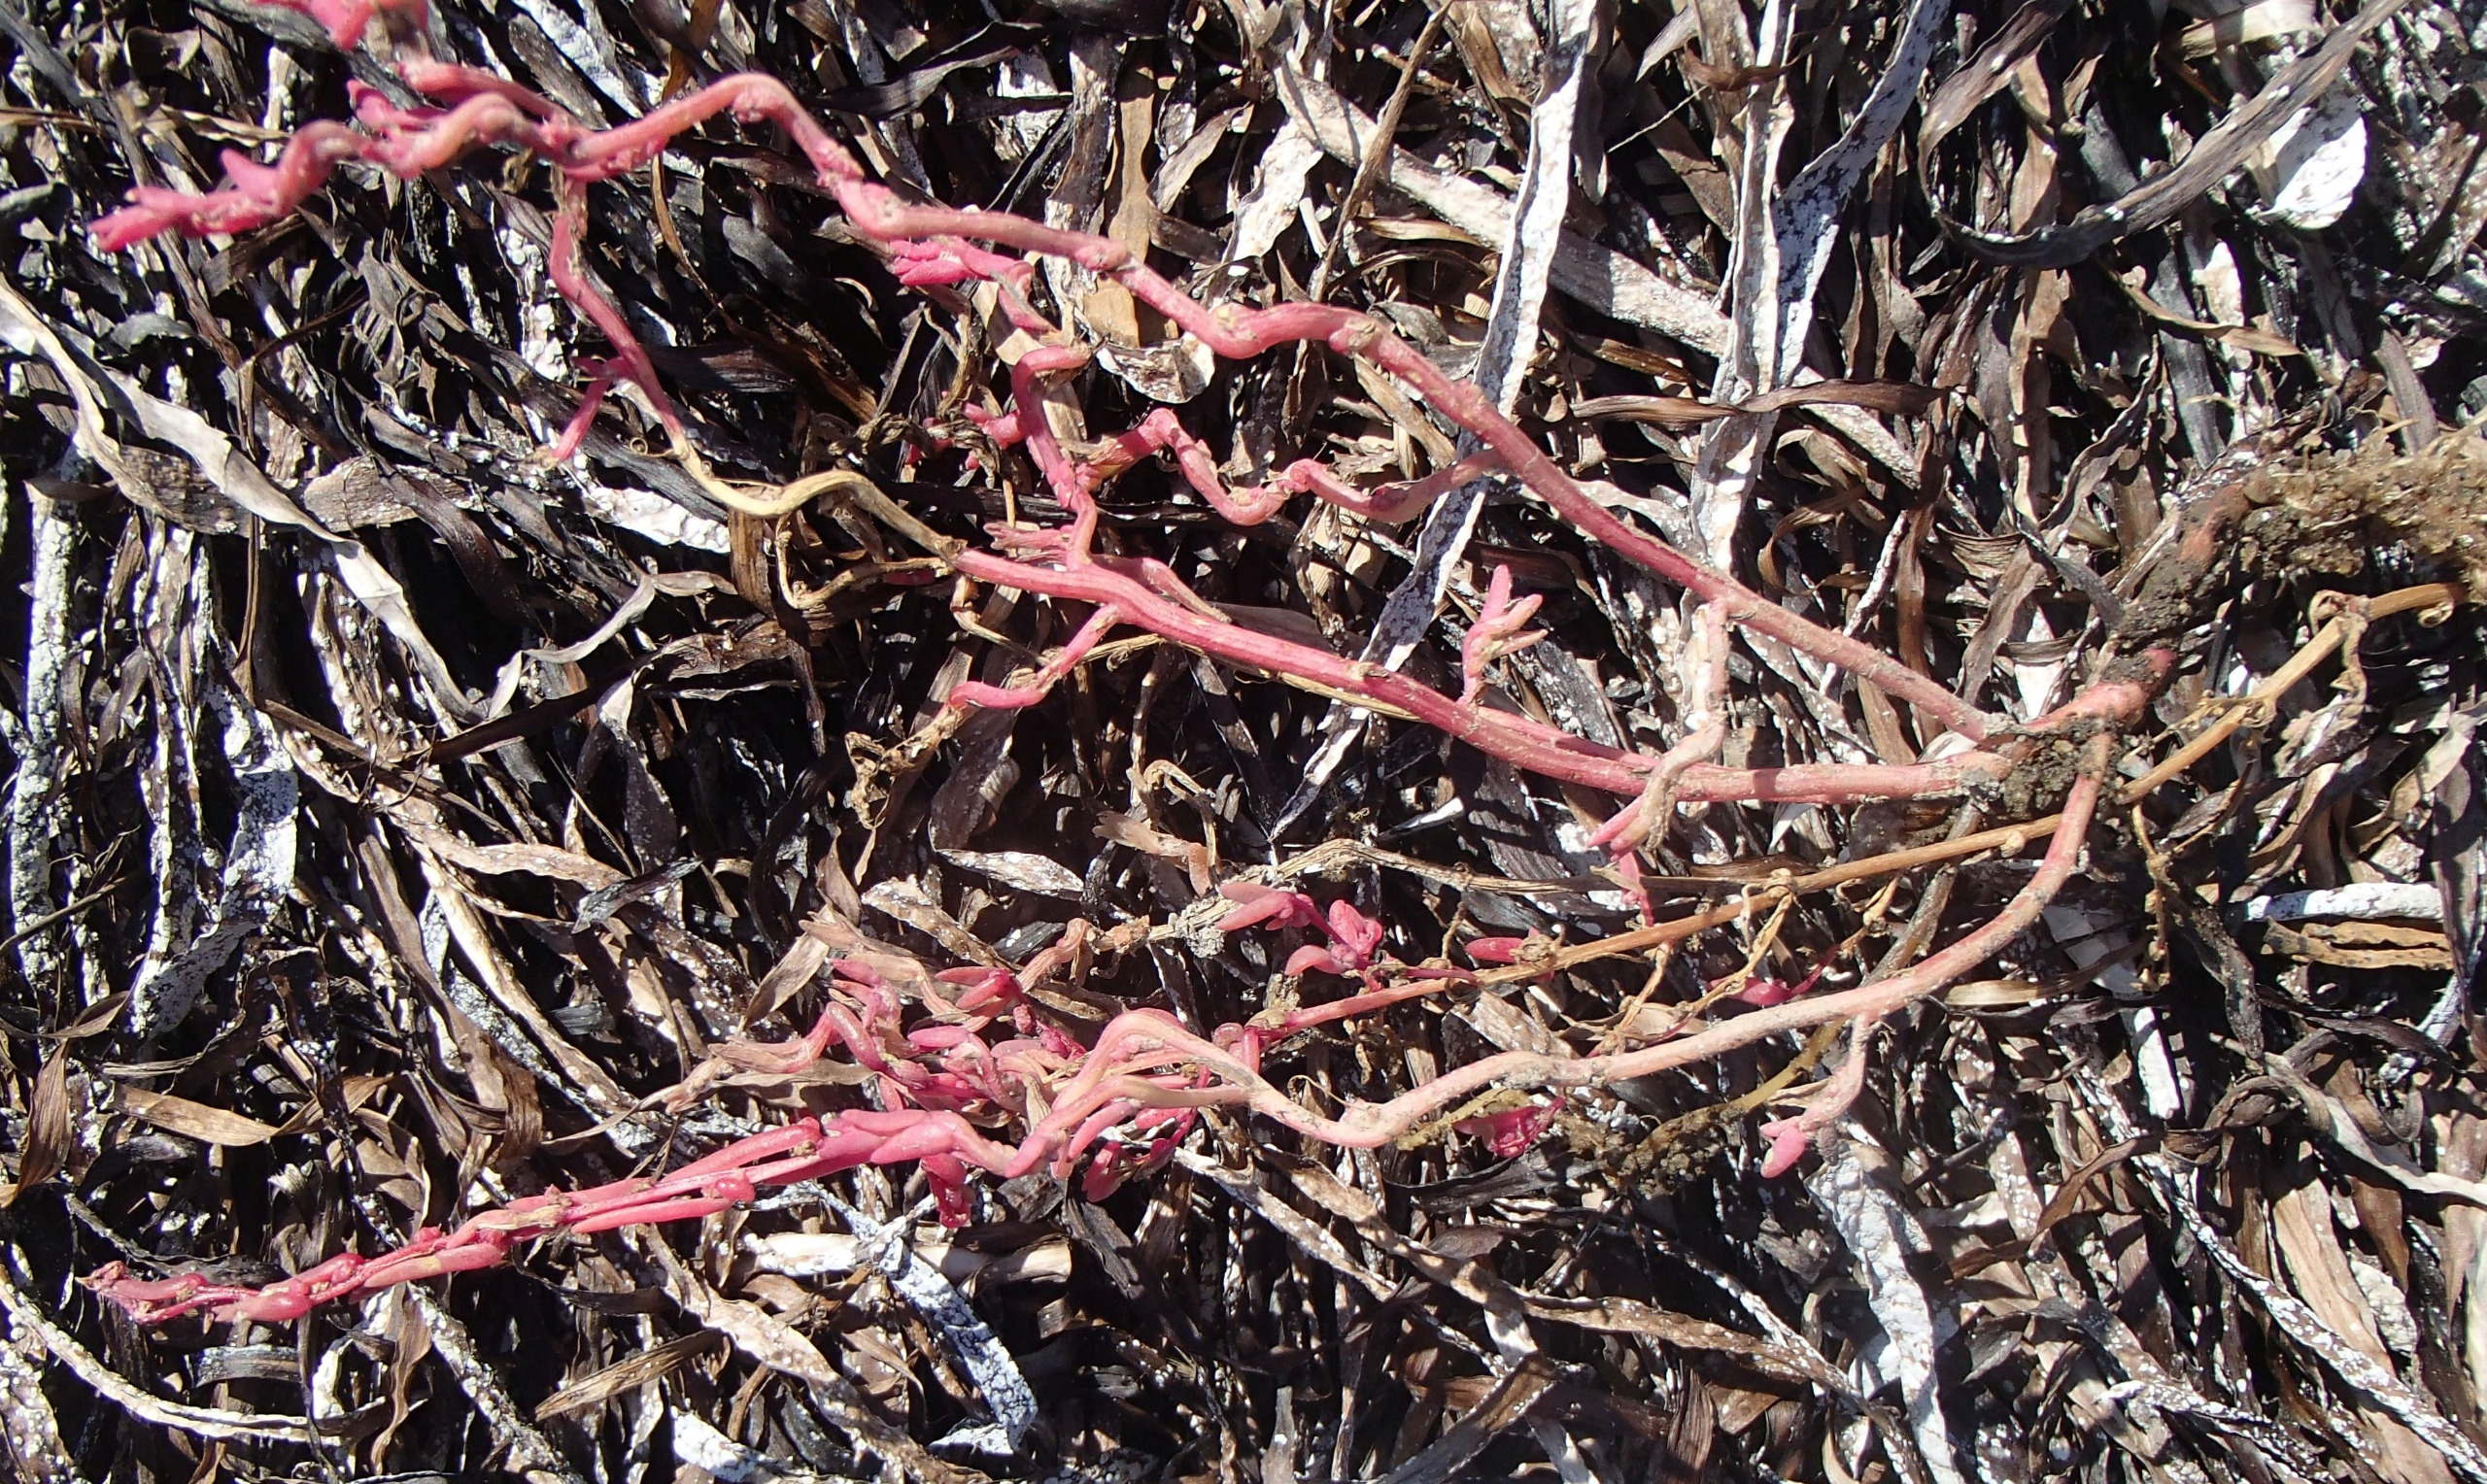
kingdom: Plantae
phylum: Tracheophyta
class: Magnoliopsida
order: Caryophyllales
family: Amaranthaceae
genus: Spirobassia
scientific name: Spirobassia hirsuta
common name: Tangurt
